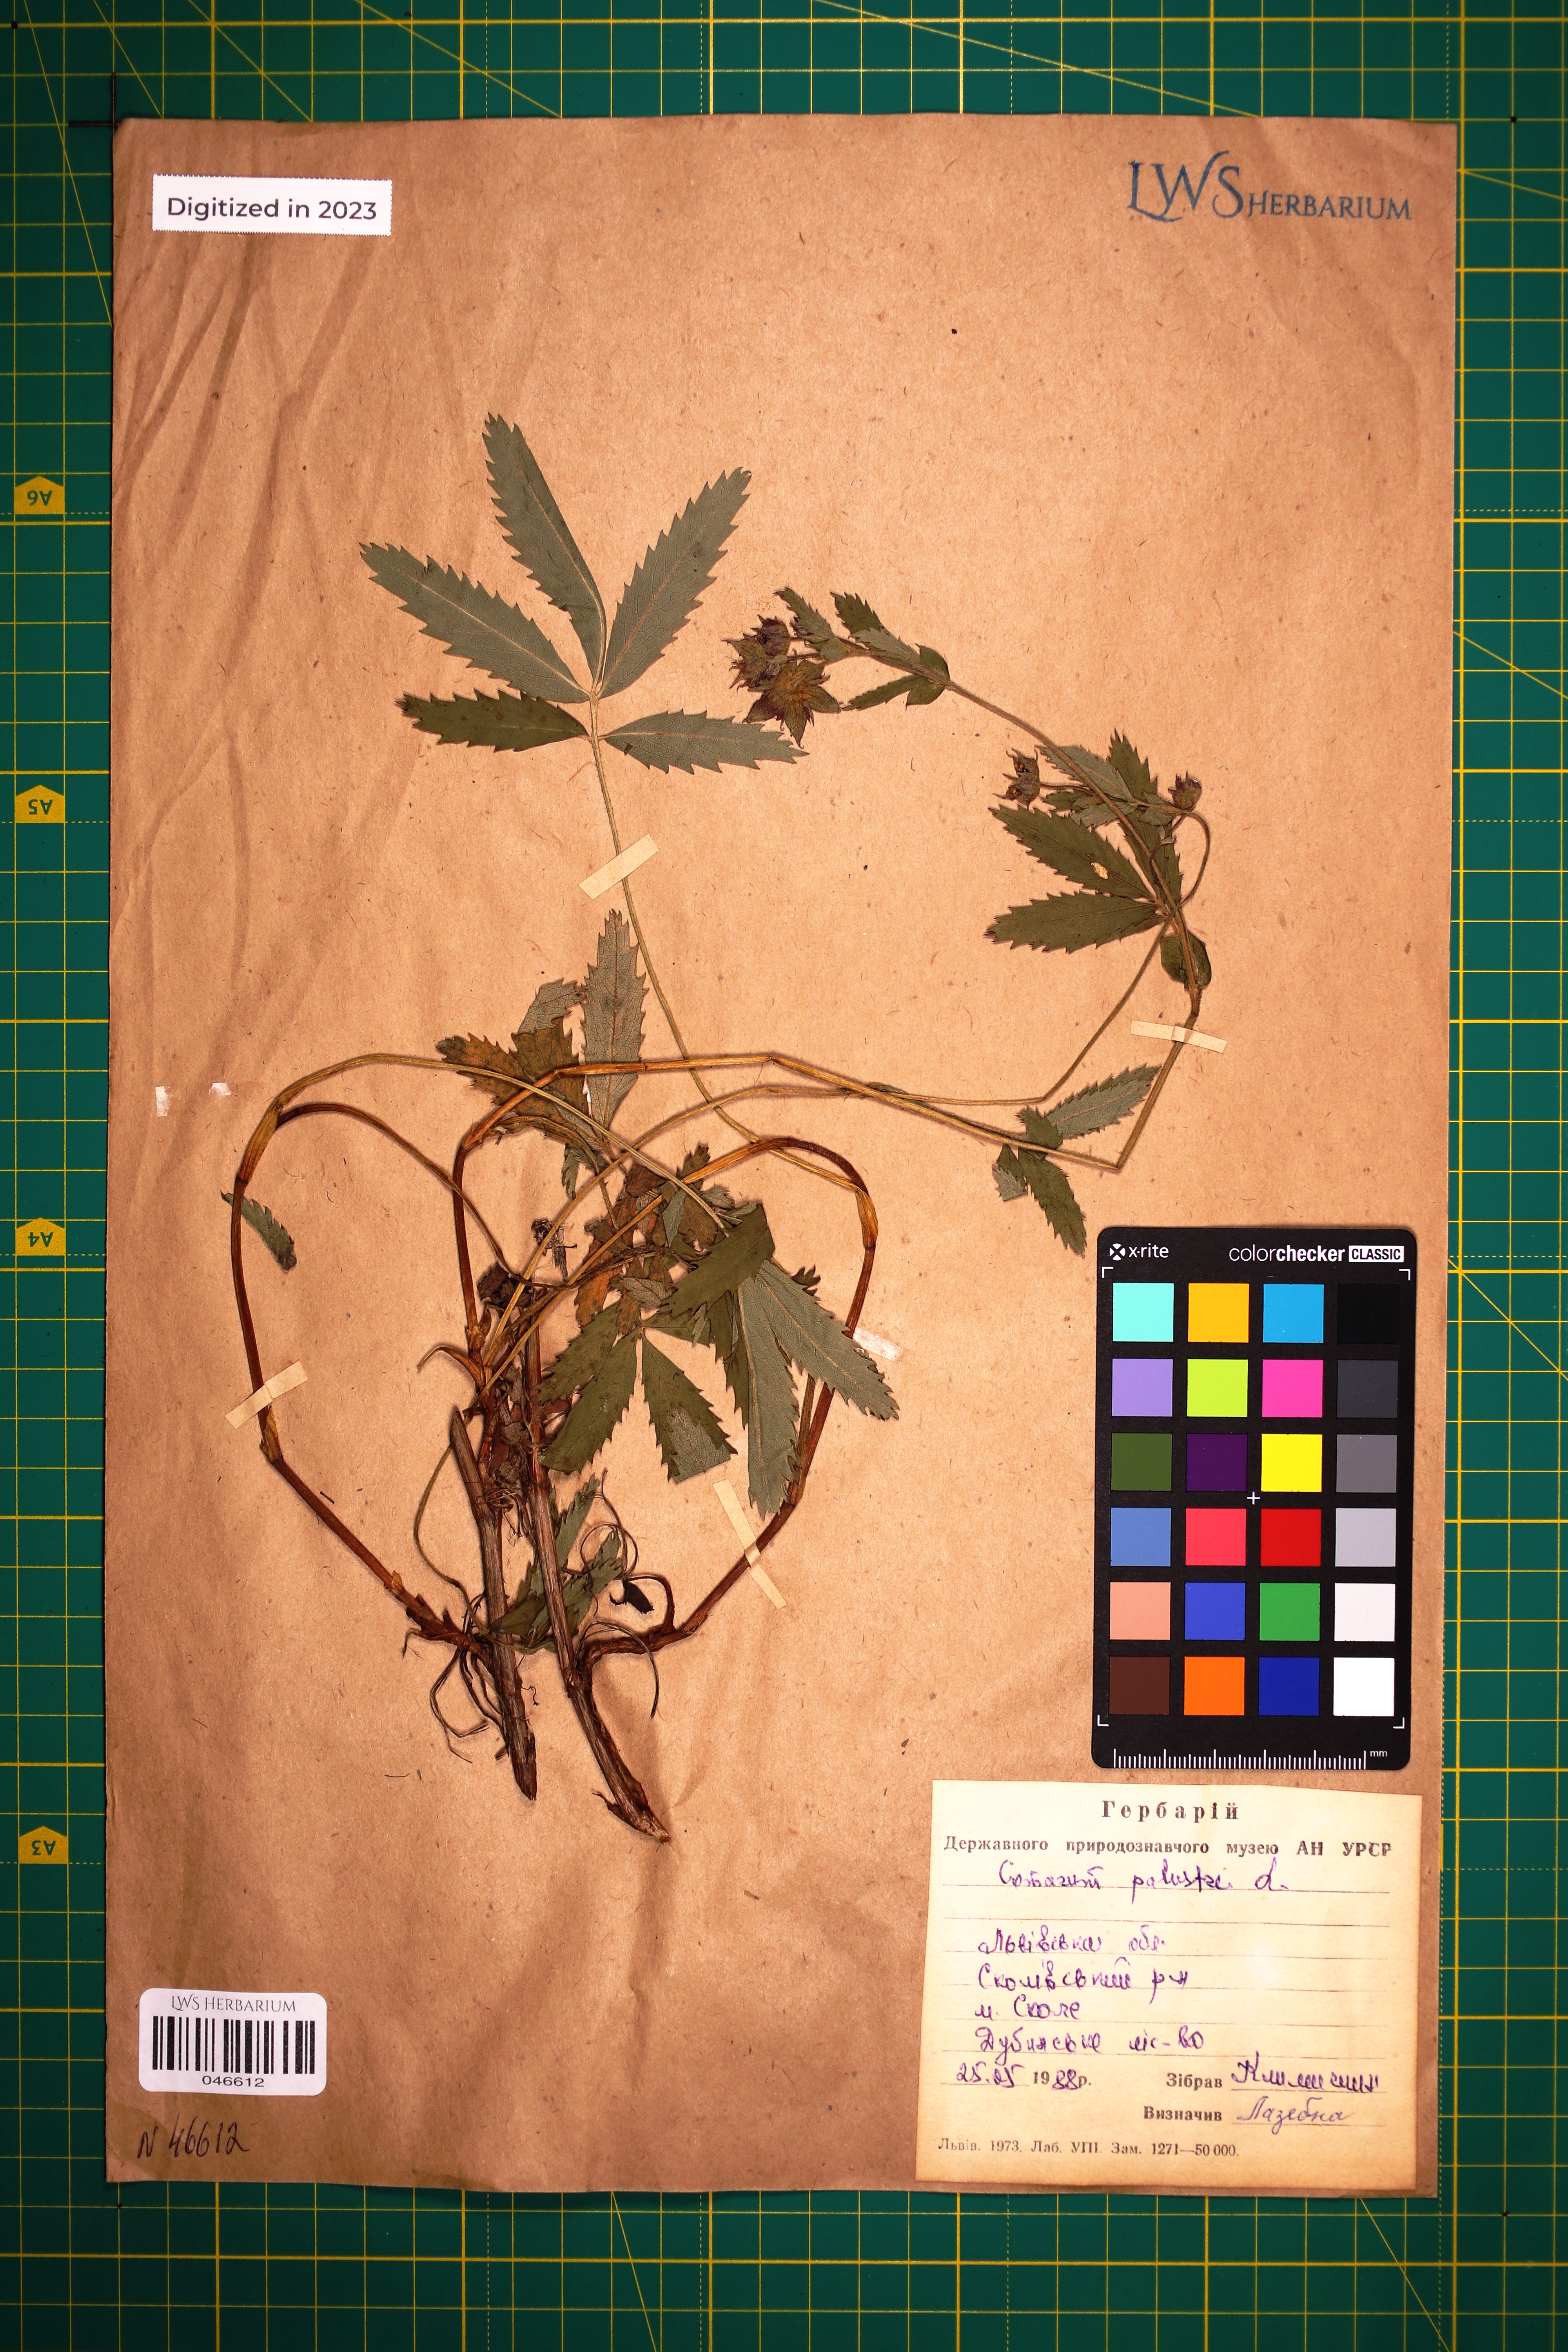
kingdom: Plantae
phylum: Tracheophyta
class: Magnoliopsida
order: Rosales
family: Rosaceae
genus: Comarum
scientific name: Comarum palustre
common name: Marsh cinquefoil
